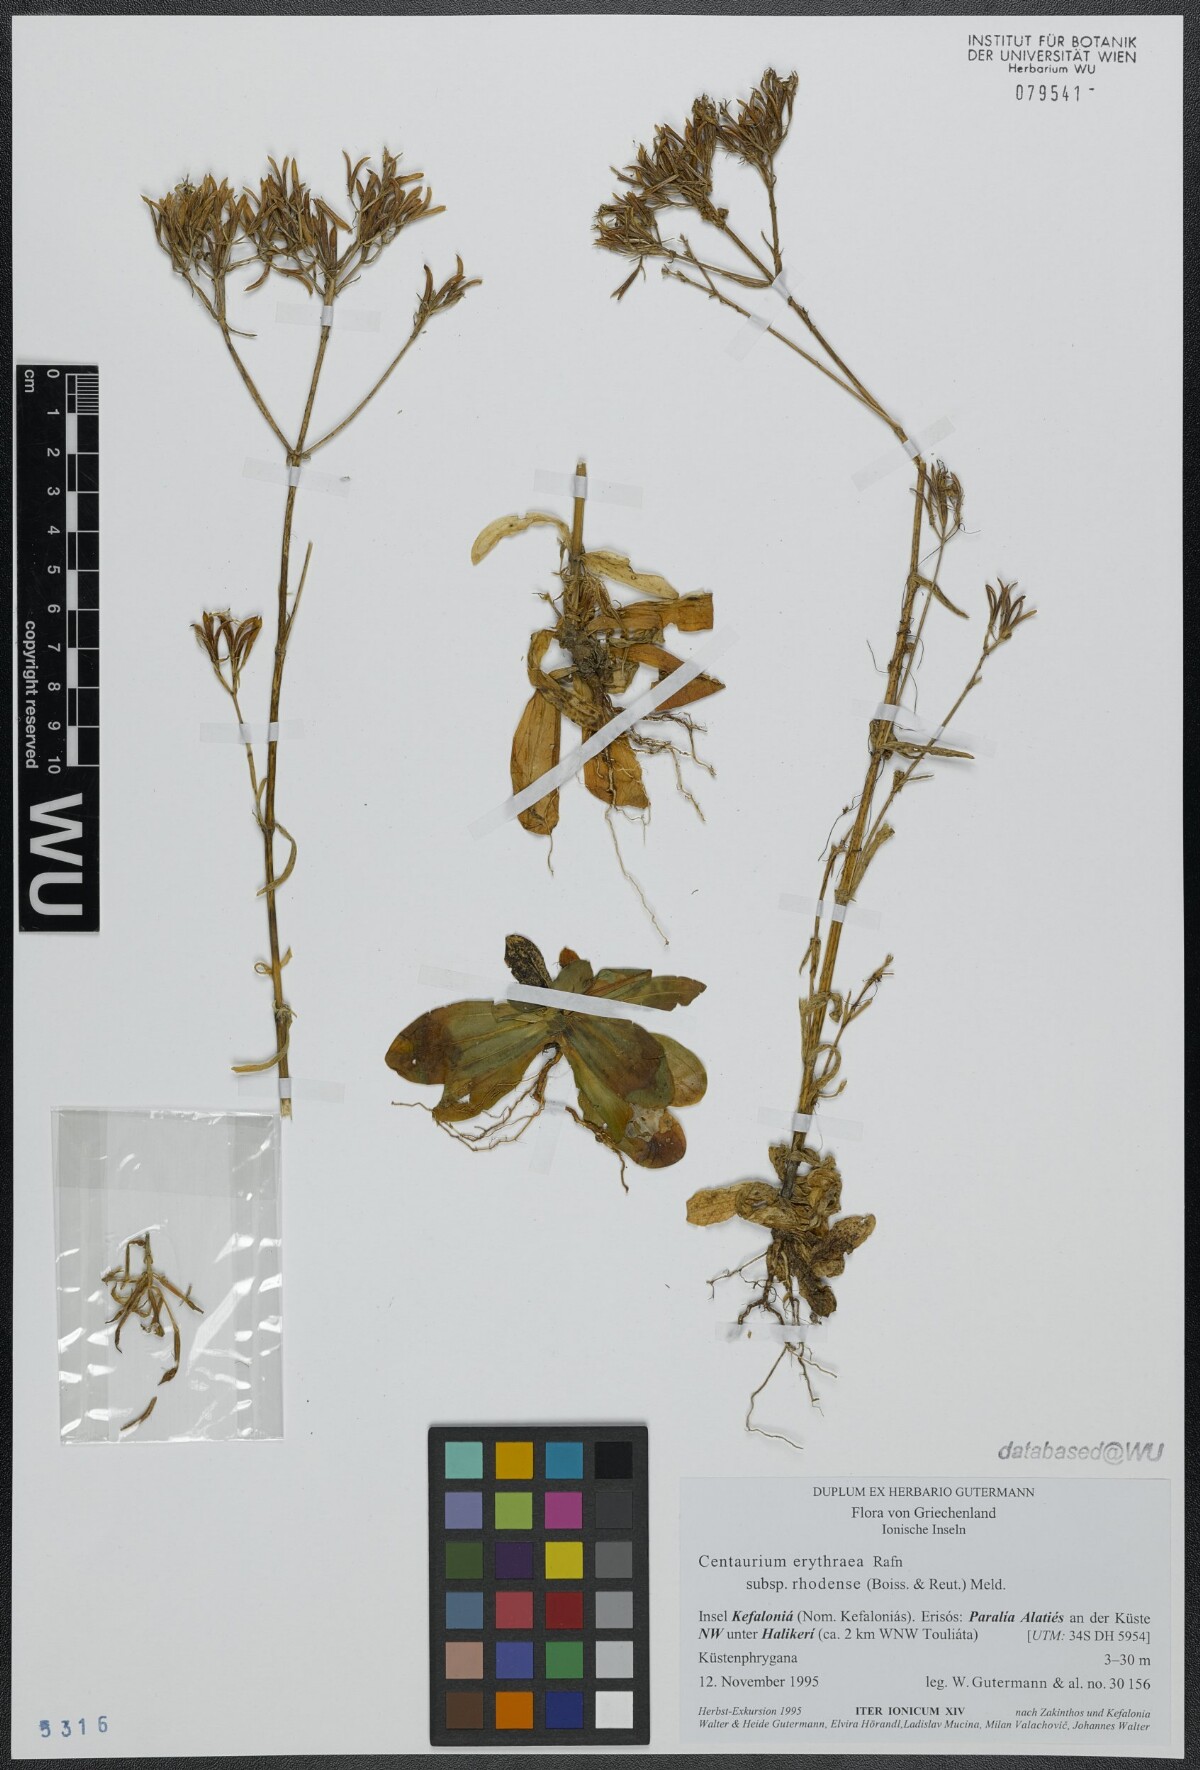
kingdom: Plantae
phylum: Tracheophyta
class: Magnoliopsida
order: Gentianales
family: Gentianaceae
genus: Centaurium
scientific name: Centaurium erythraea
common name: Common centaury
